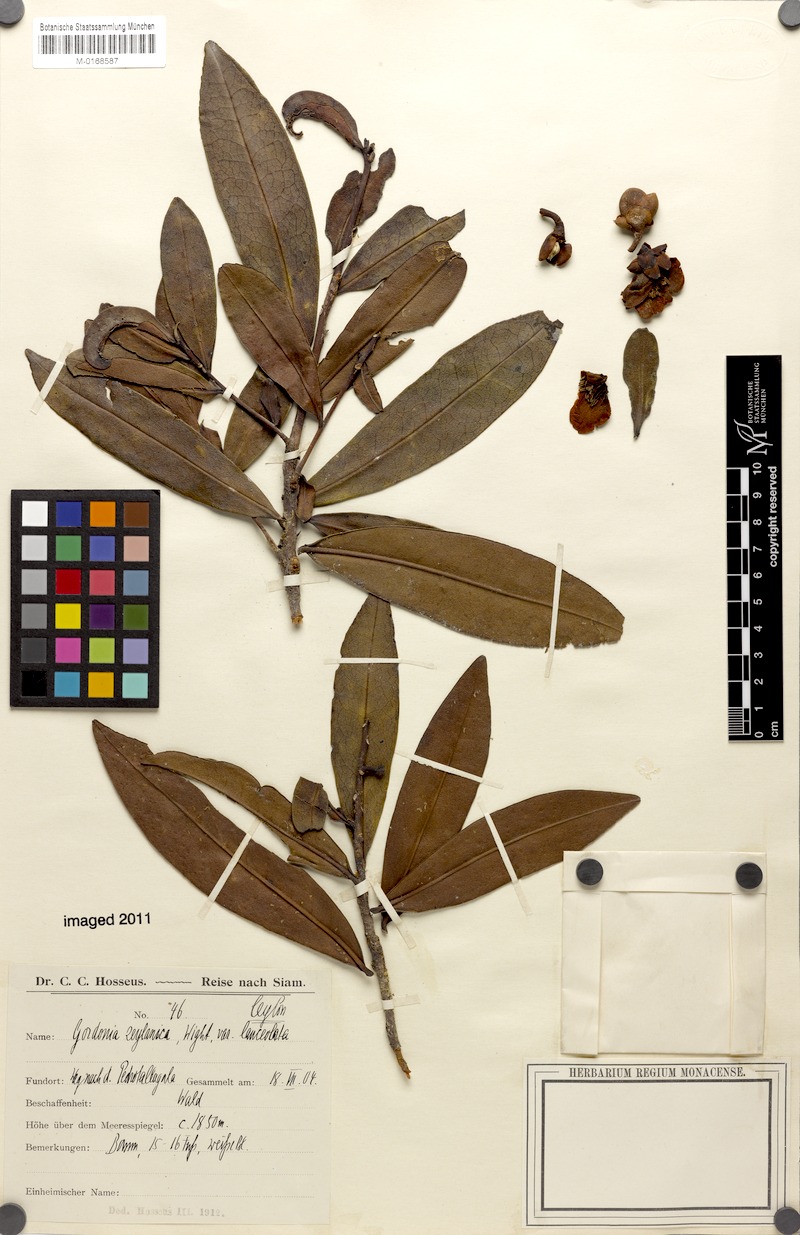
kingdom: Plantae
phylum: Tracheophyta
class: Magnoliopsida
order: Ericales
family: Theaceae
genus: Polyspora
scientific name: Polyspora ceylanica
